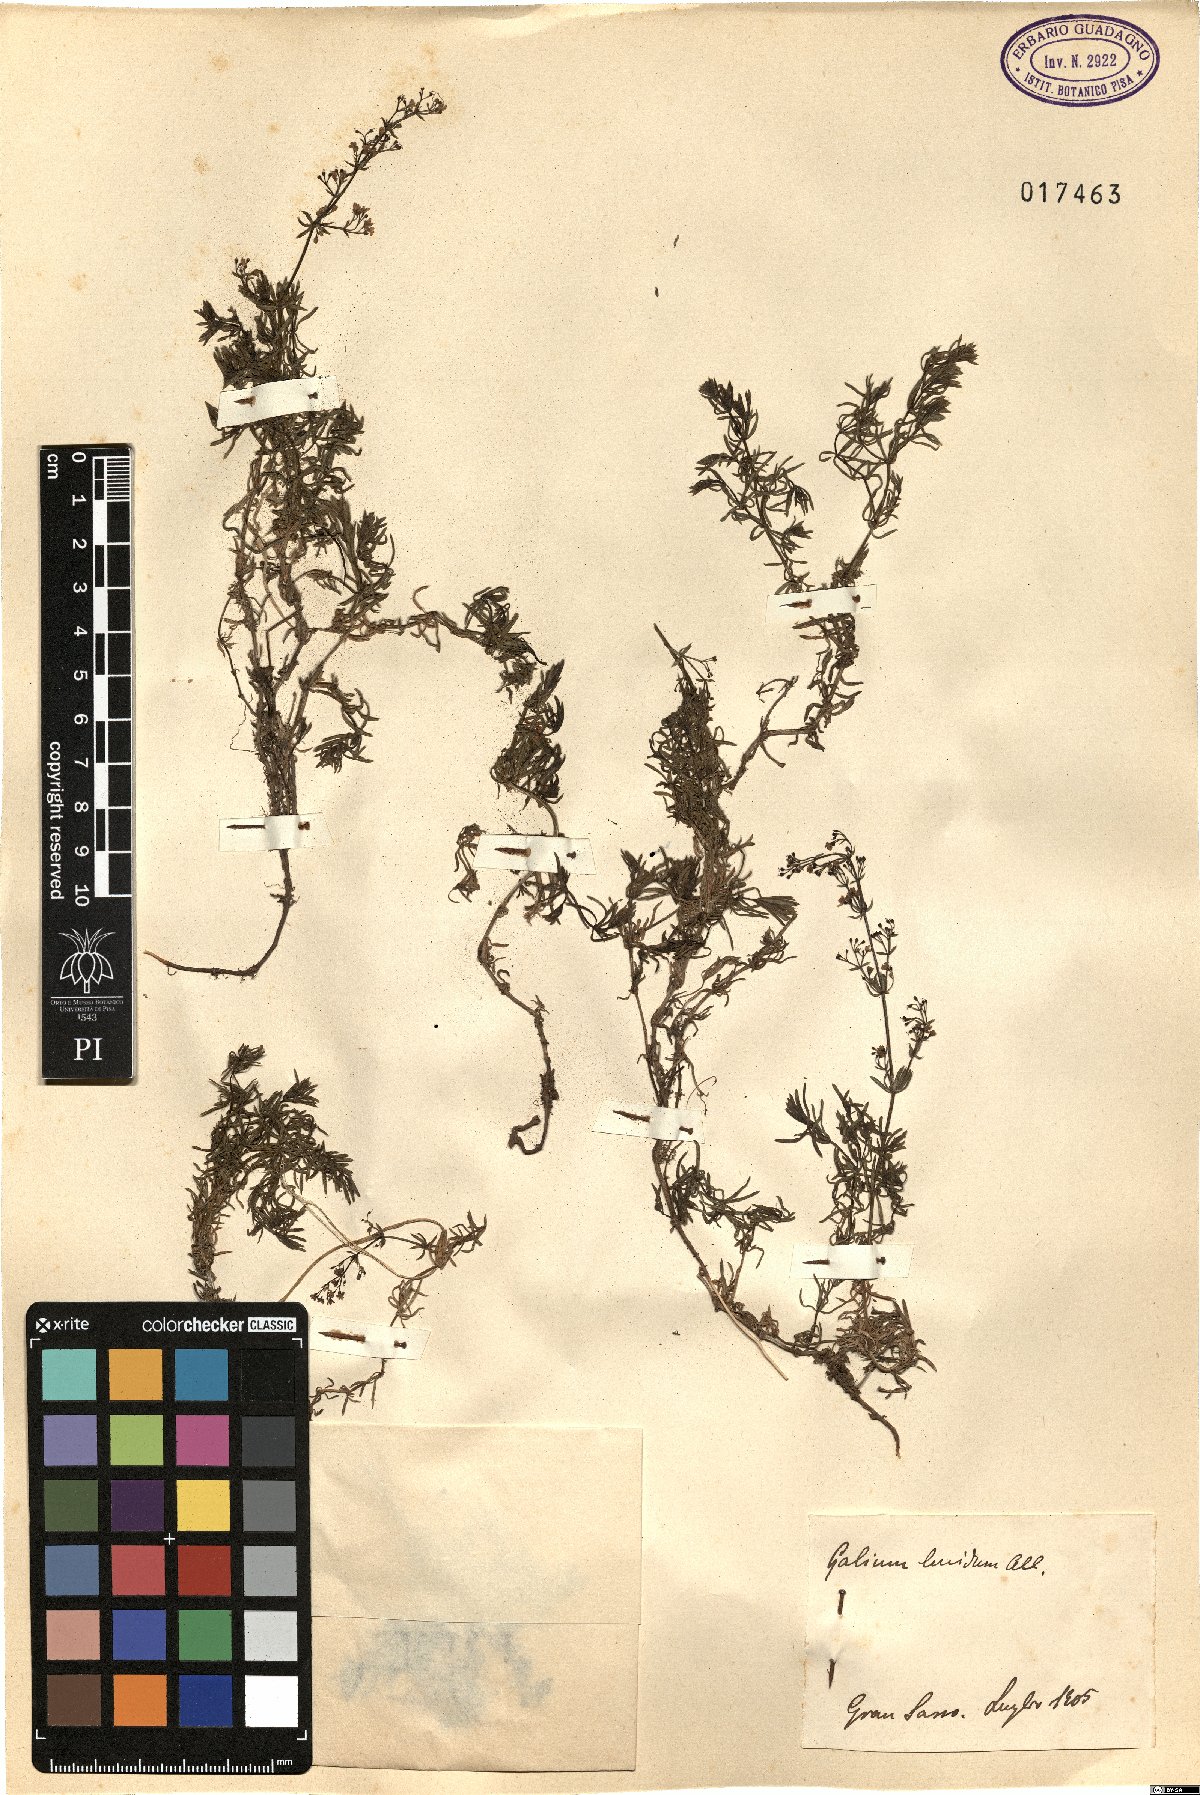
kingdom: Plantae
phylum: Tracheophyta
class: Magnoliopsida
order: Gentianales
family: Rubiaceae
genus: Galium
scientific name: Galium lucidum
